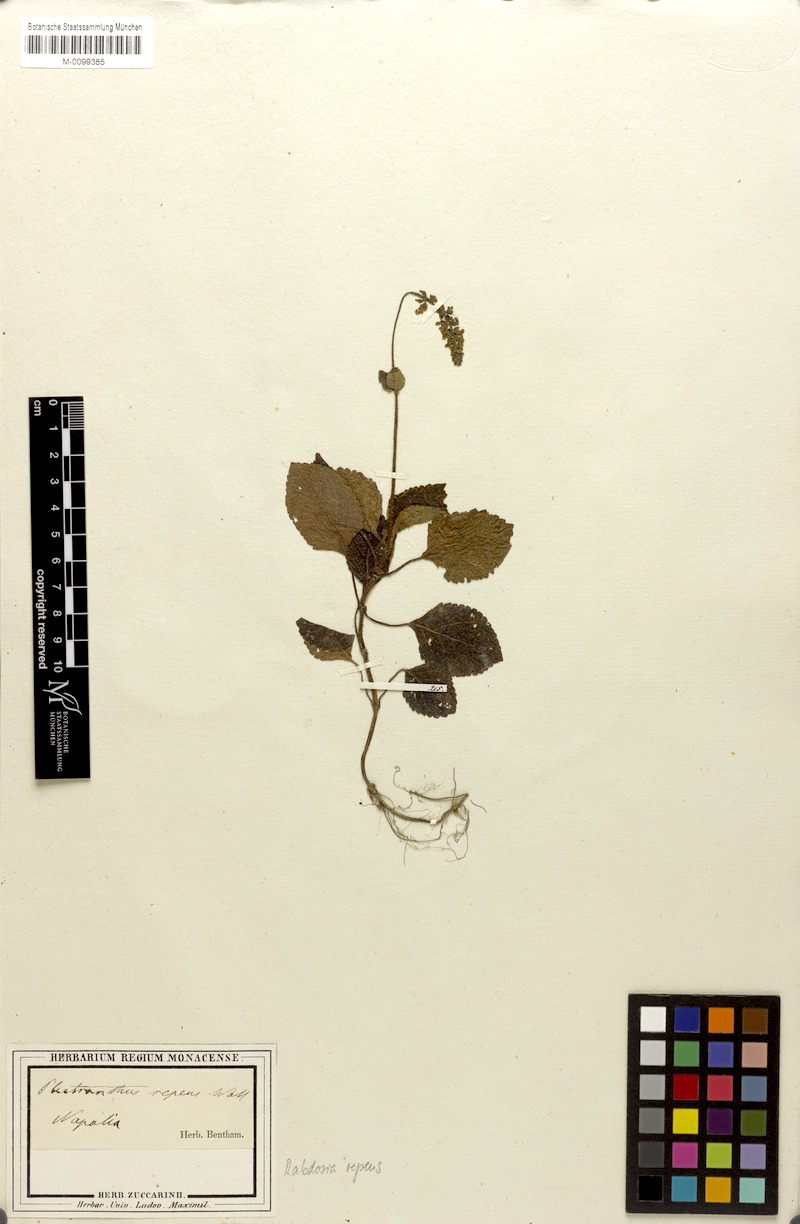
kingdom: Plantae
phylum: Tracheophyta
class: Magnoliopsida
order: Lamiales
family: Lamiaceae
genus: Isodon
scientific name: Isodon repens
